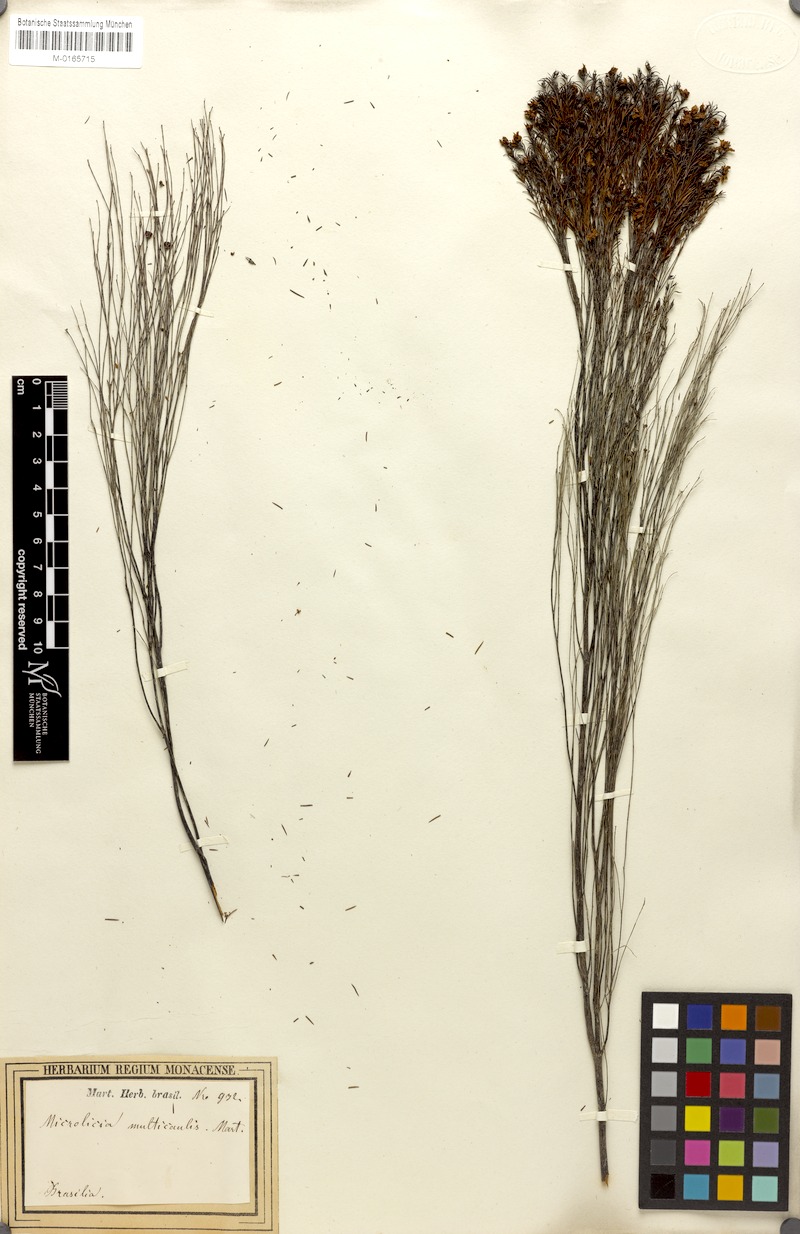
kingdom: Plantae
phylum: Tracheophyta
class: Magnoliopsida
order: Myrtales
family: Melastomataceae
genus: Microlicia
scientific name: Microlicia multicaulis
